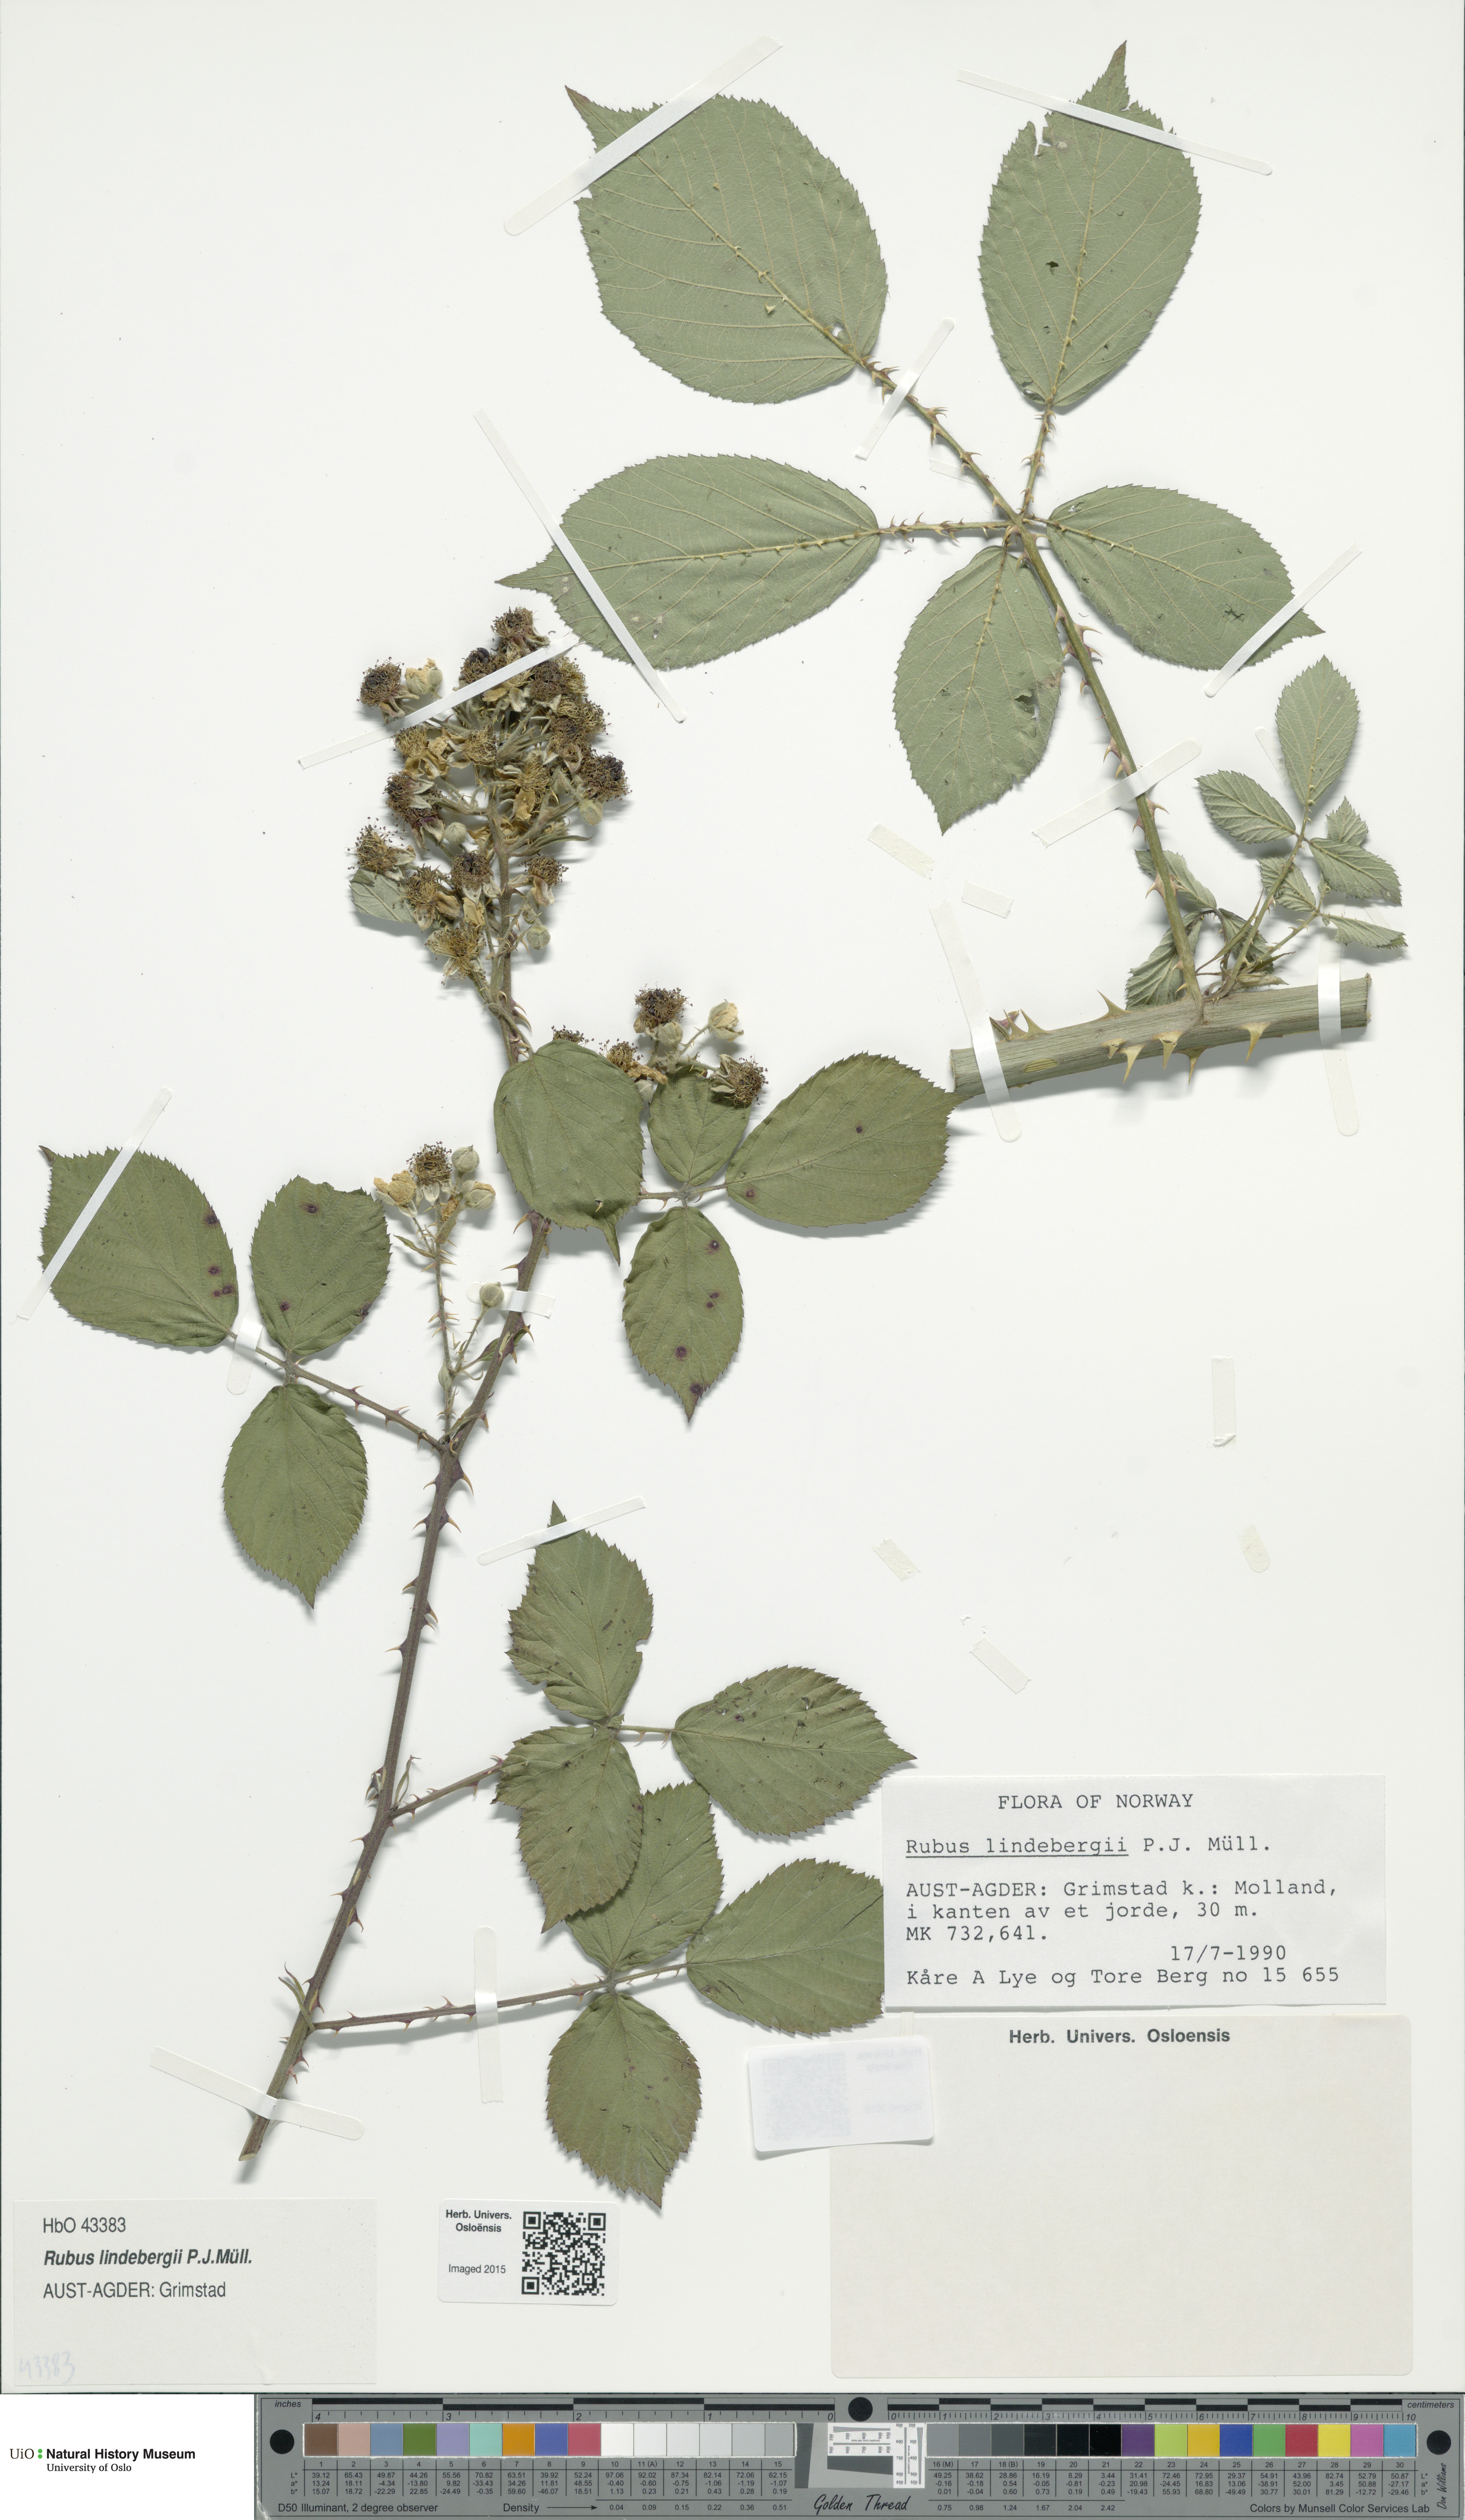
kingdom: Plantae
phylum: Tracheophyta
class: Magnoliopsida
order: Rosales
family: Rosaceae
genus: Rubus
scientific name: Rubus lindebergii
